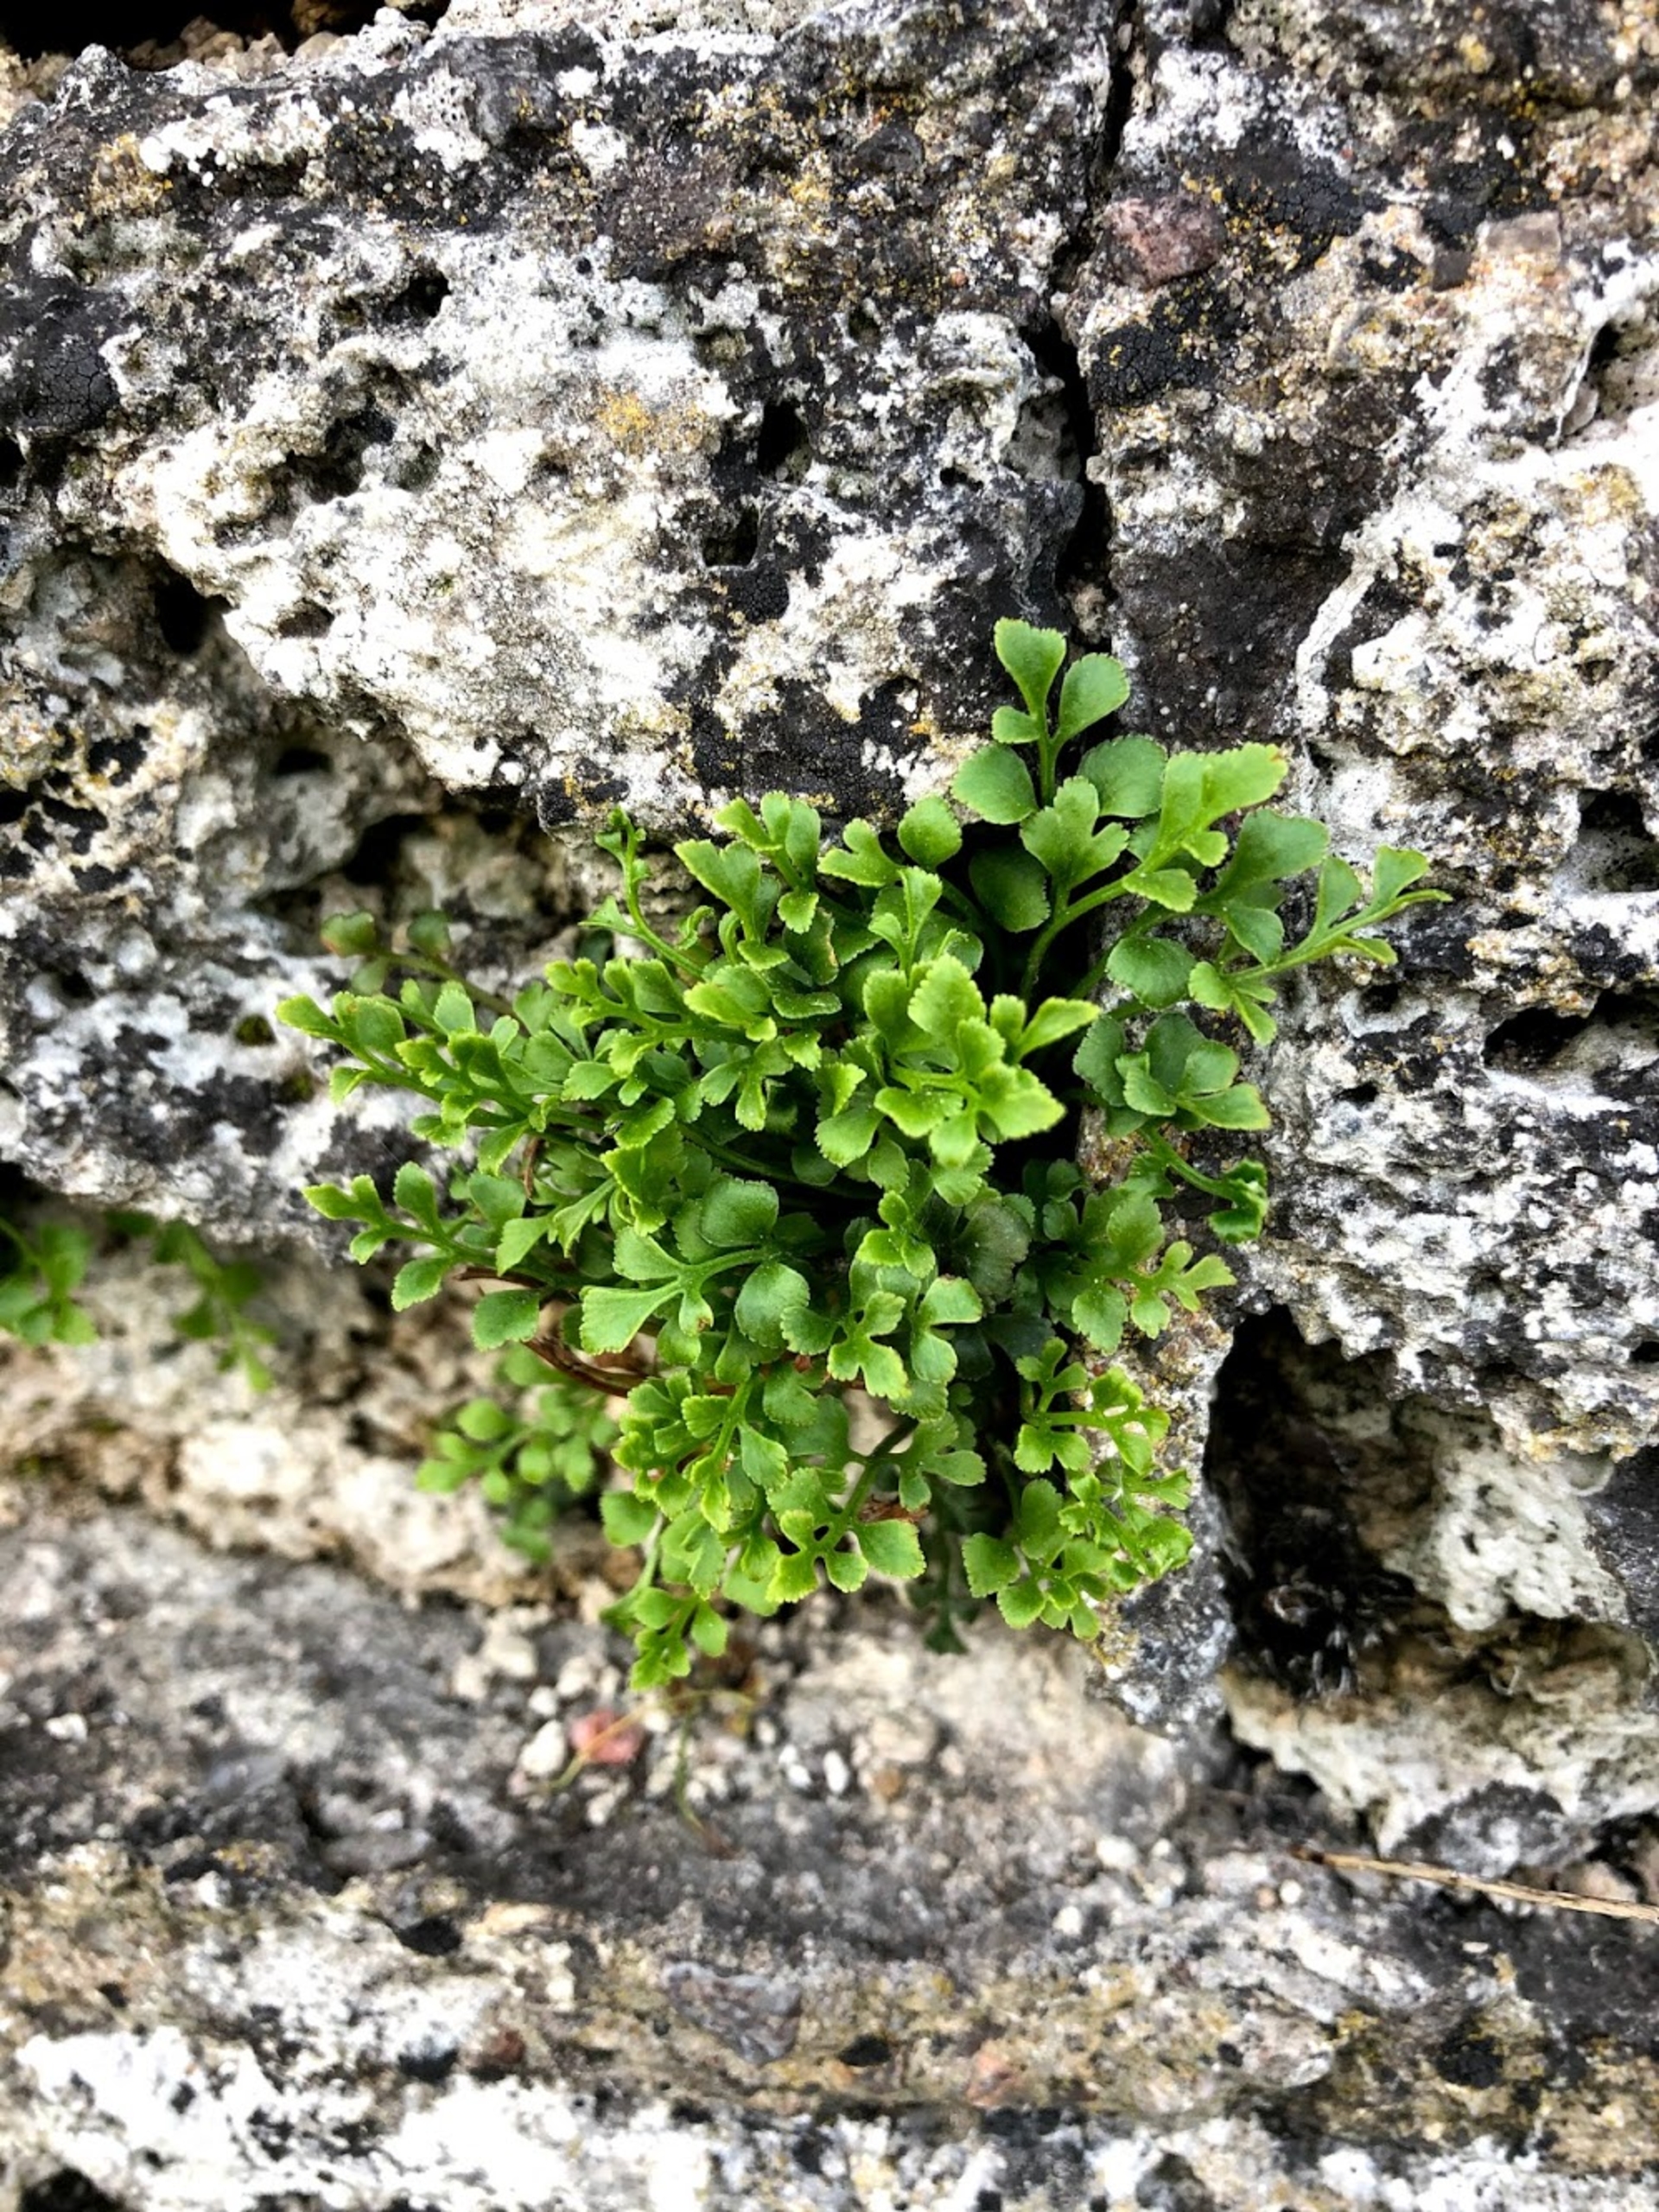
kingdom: Plantae
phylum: Tracheophyta
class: Polypodiopsida
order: Polypodiales
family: Aspleniaceae
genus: Asplenium
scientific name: Asplenium ruta-muraria
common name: Murrude
